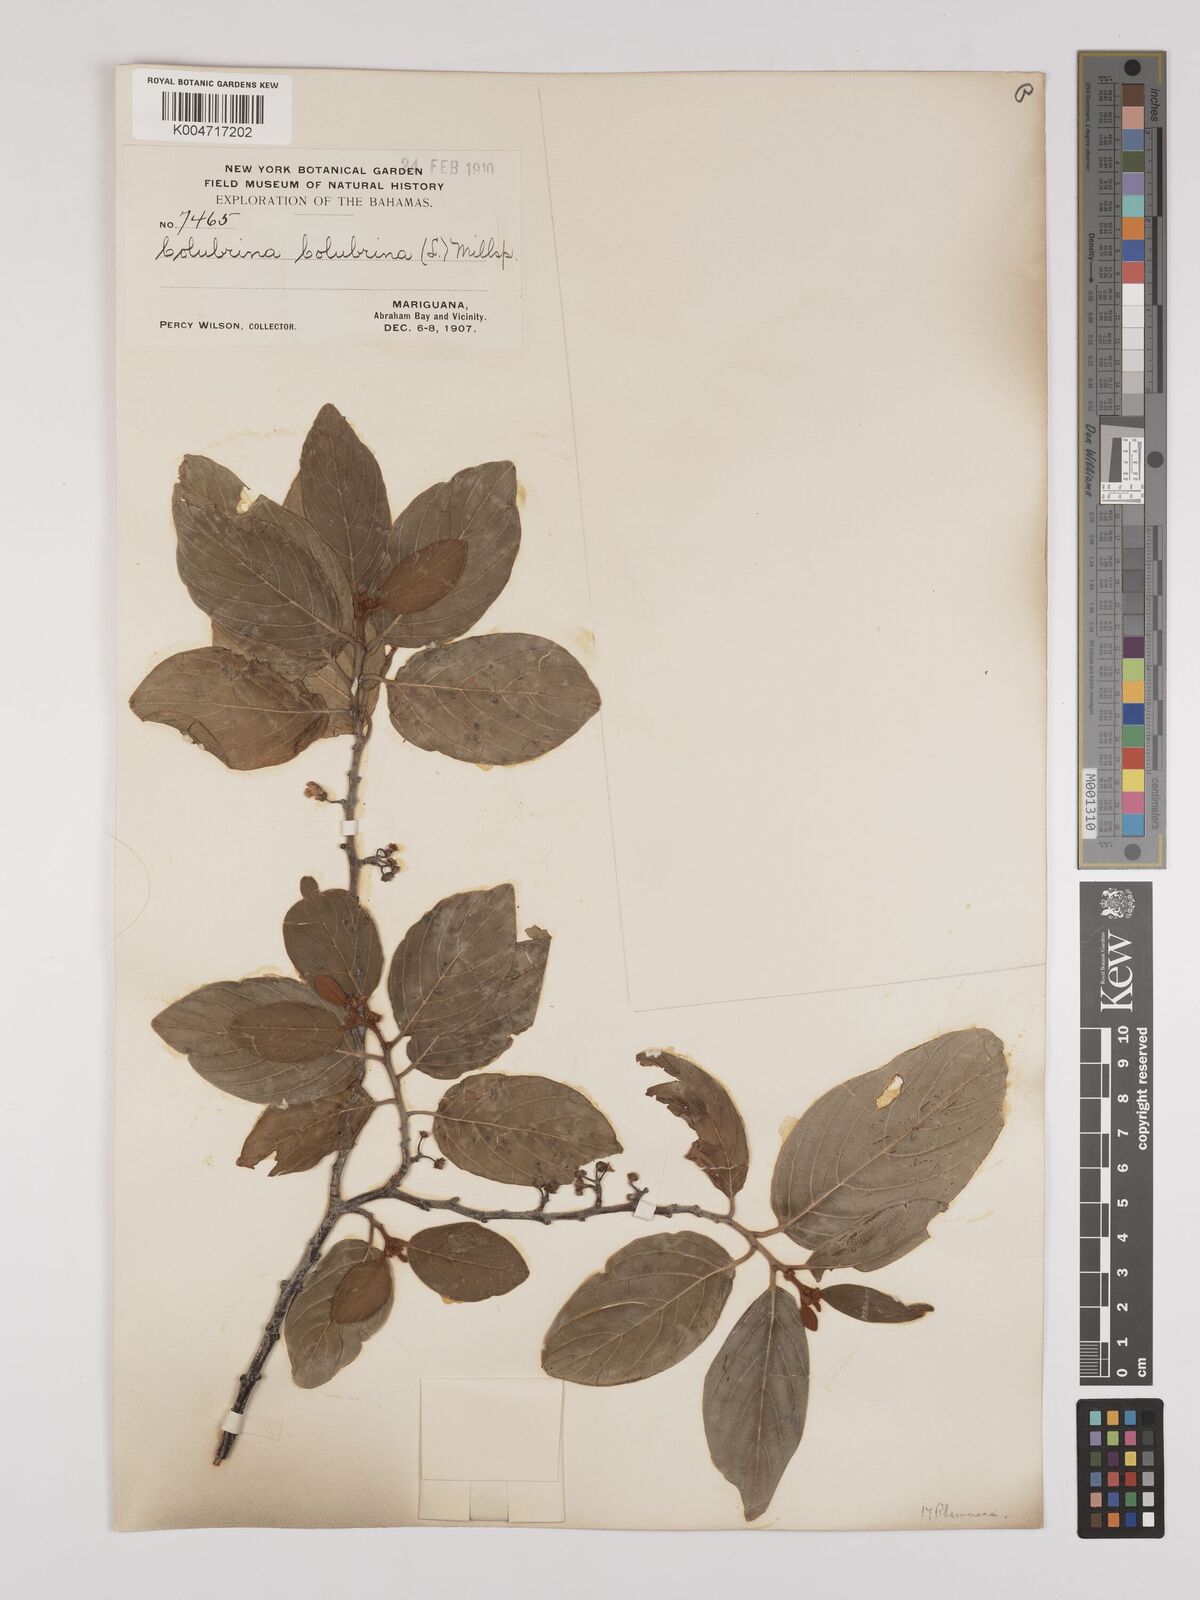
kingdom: Plantae
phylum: Tracheophyta
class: Magnoliopsida
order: Rosales
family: Rhamnaceae
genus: Colubrina
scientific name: Colubrina arborescens
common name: Wild coffee
